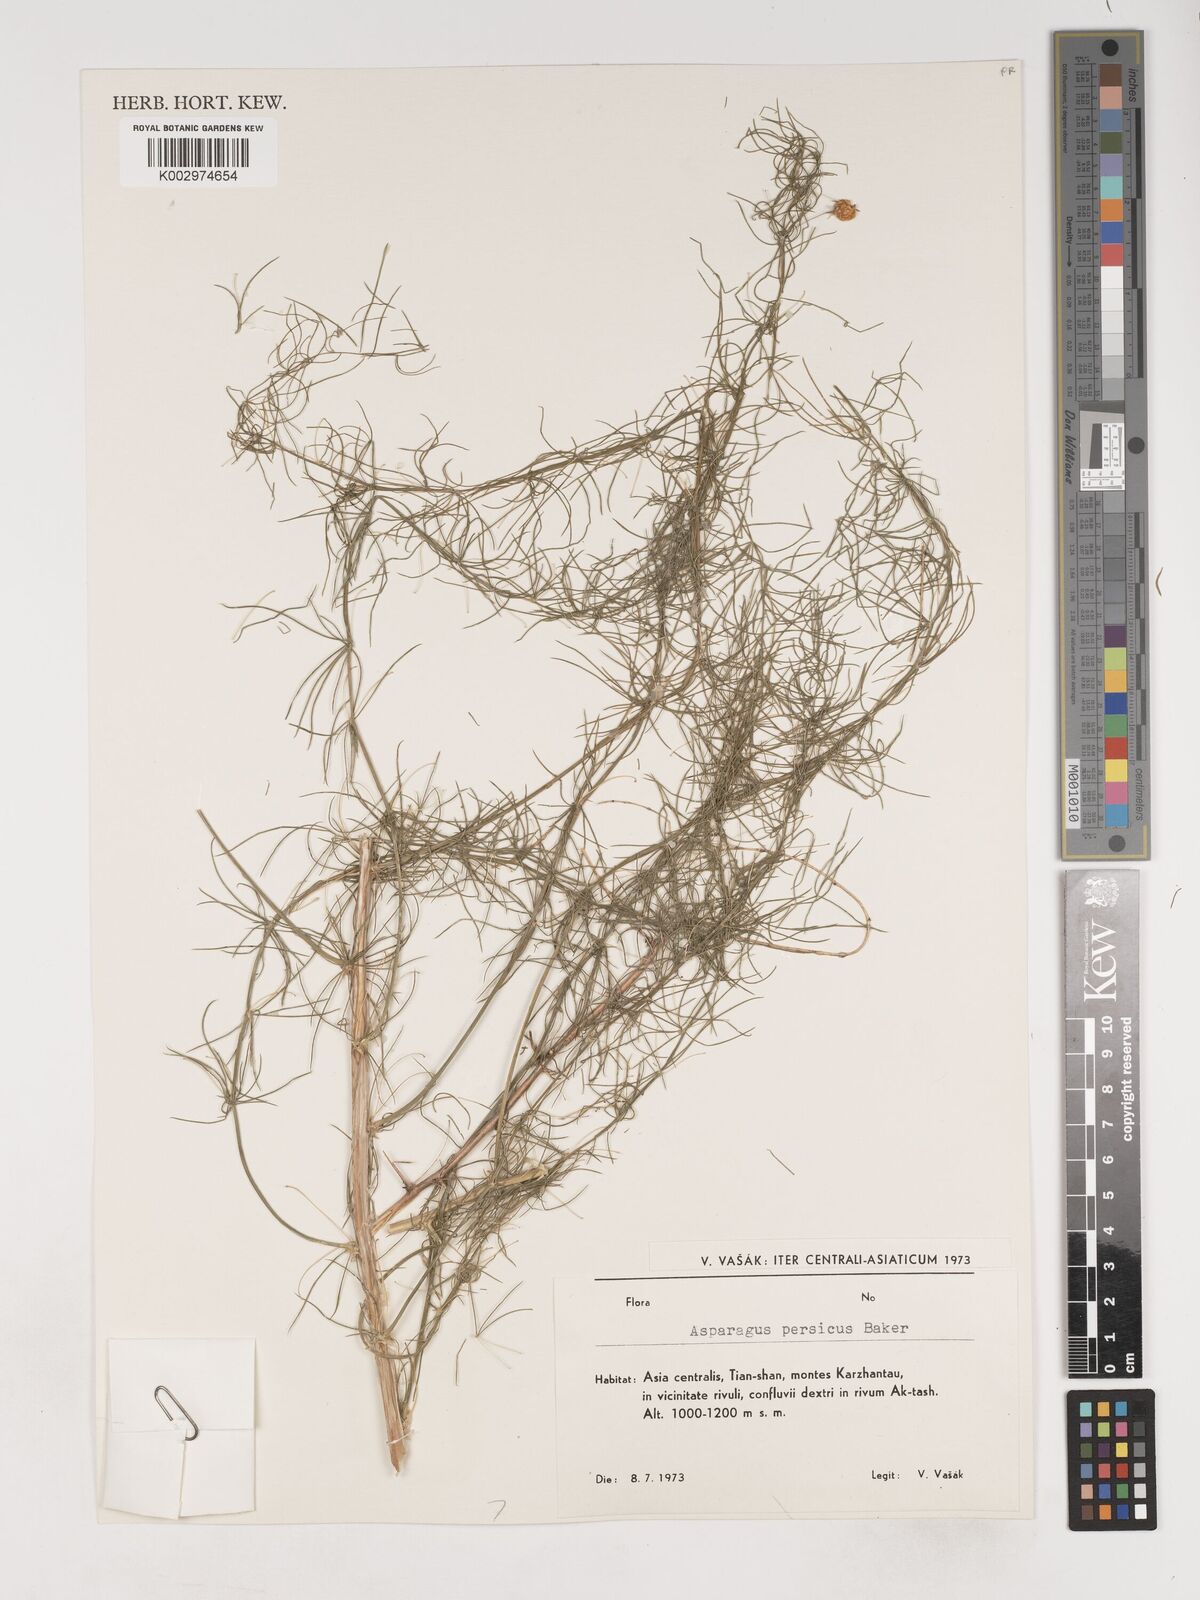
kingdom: Plantae
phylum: Tracheophyta
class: Liliopsida
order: Asparagales
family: Asparagaceae
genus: Asparagus
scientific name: Asparagus persicus
